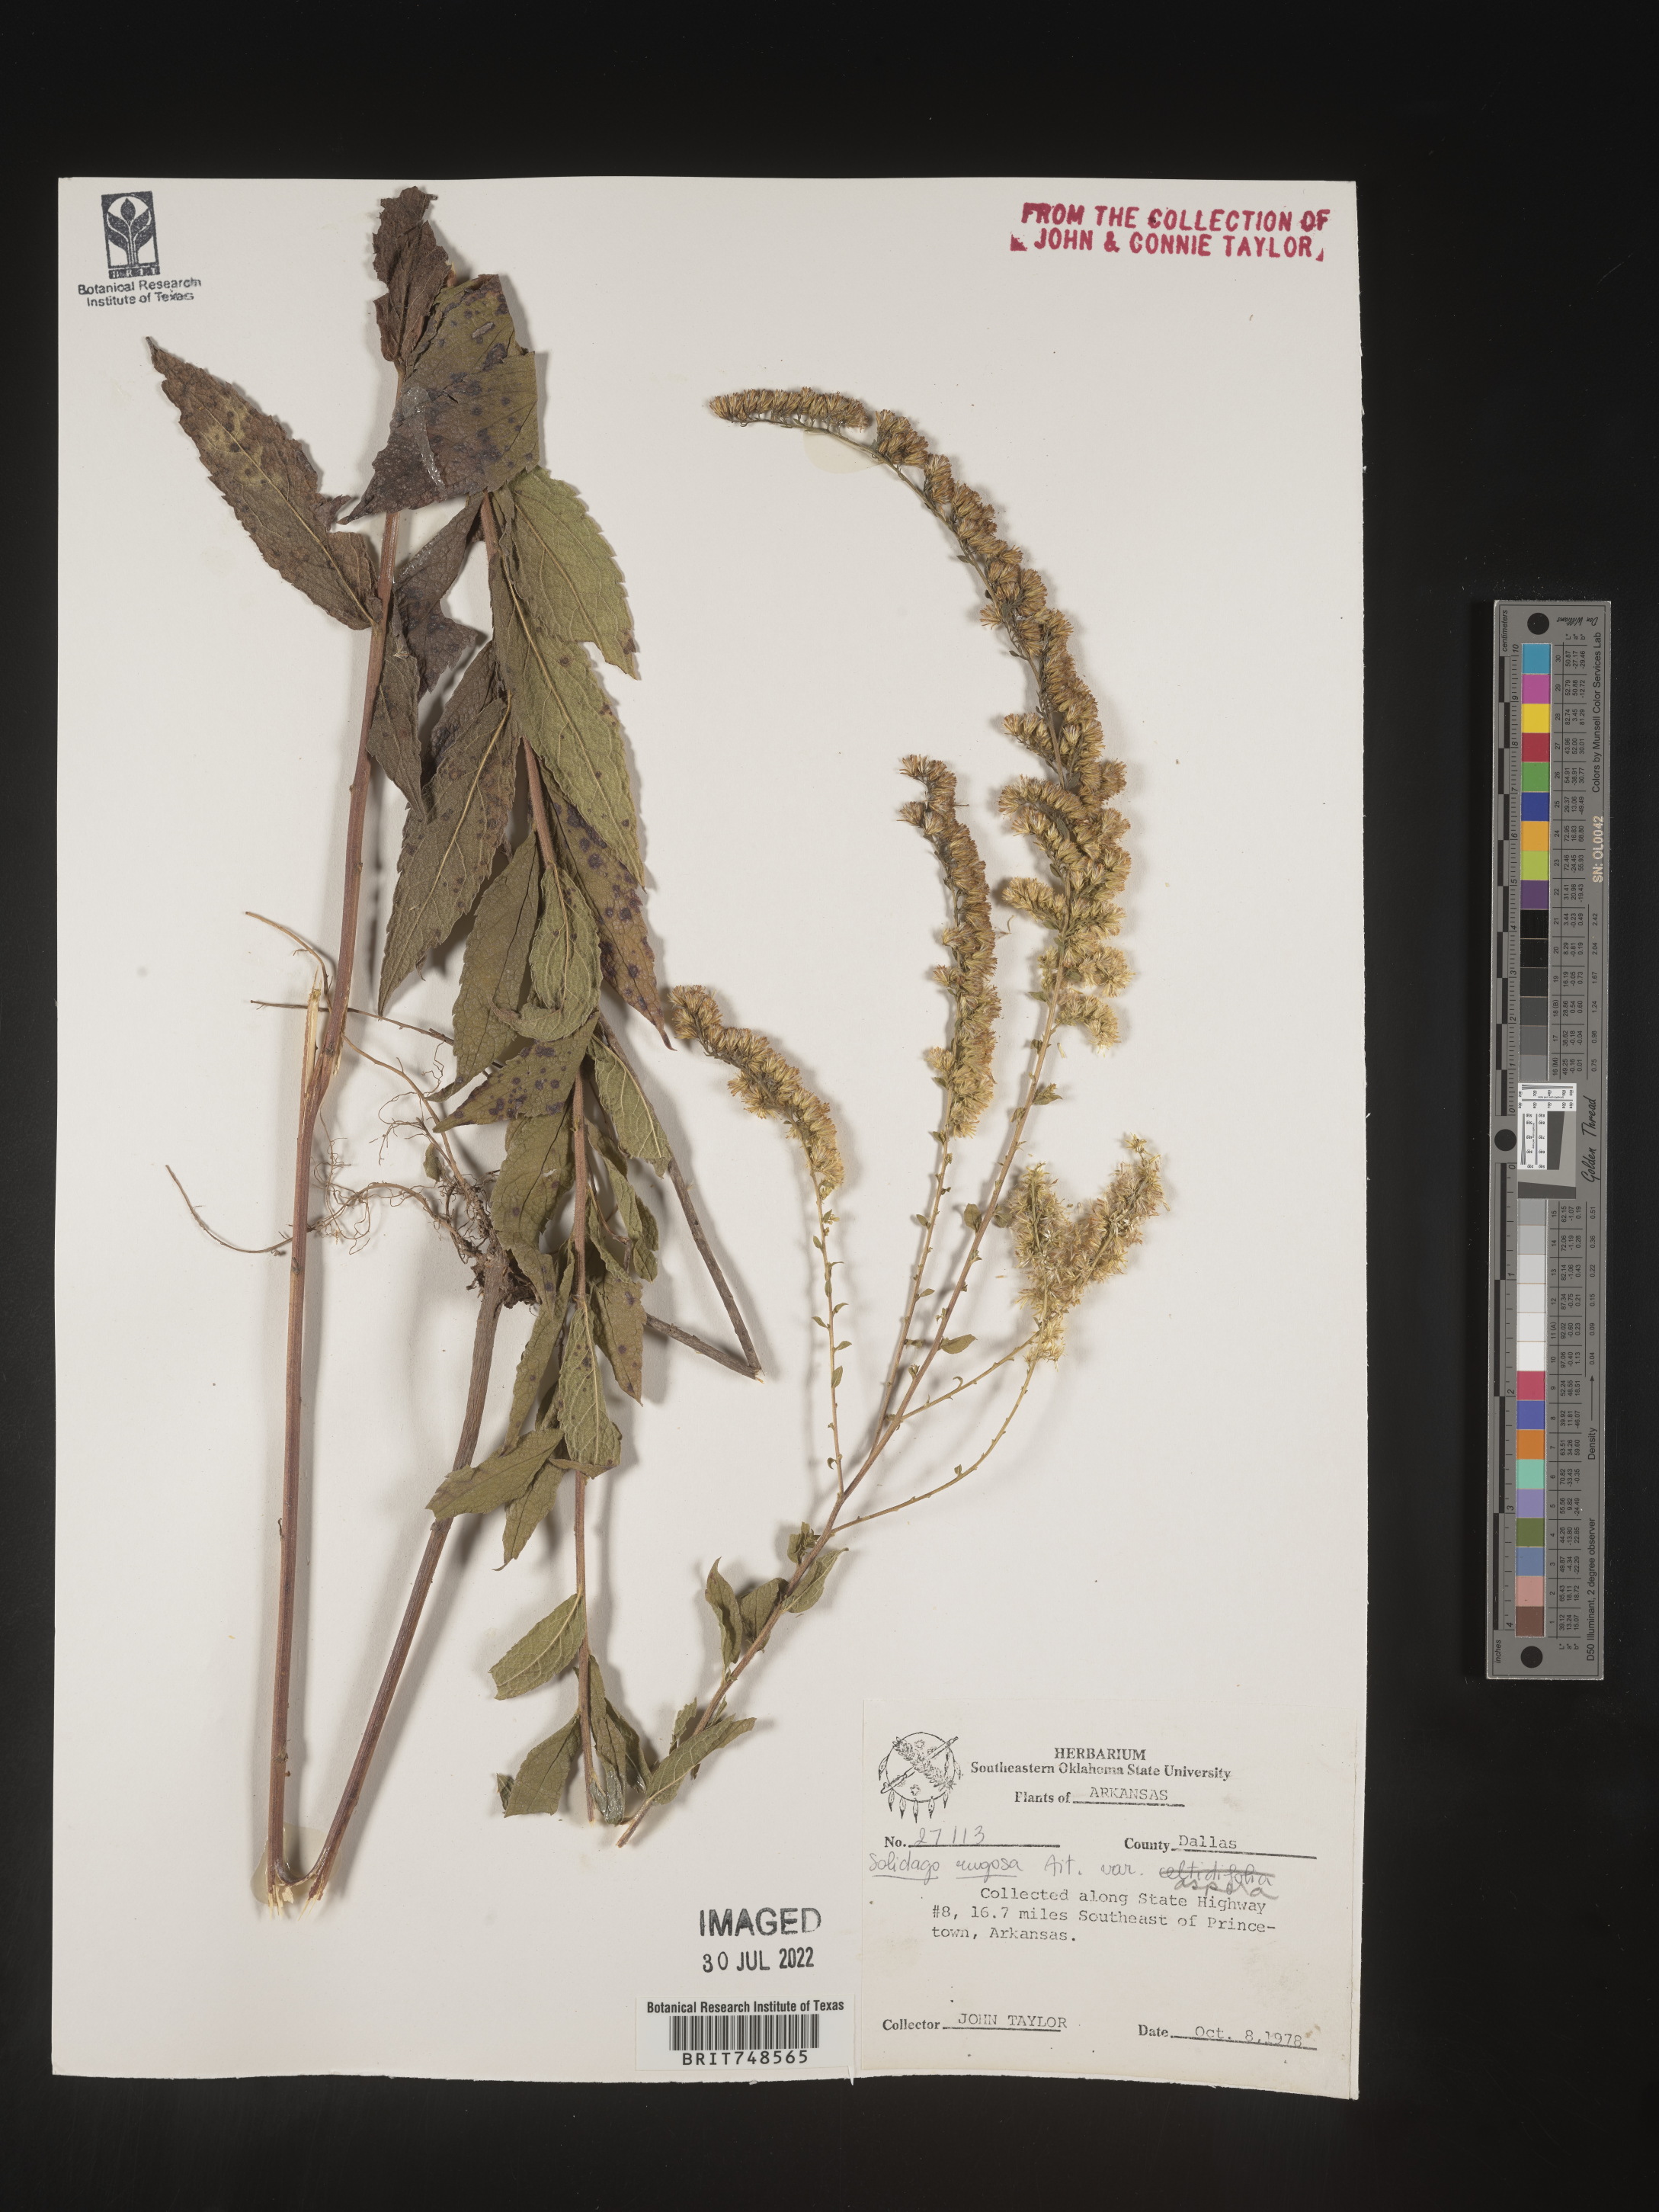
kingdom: Plantae
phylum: Tracheophyta
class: Magnoliopsida
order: Asterales
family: Asteraceae
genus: Solidago
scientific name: Solidago rugosa
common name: Rough-stemmed goldenrod
